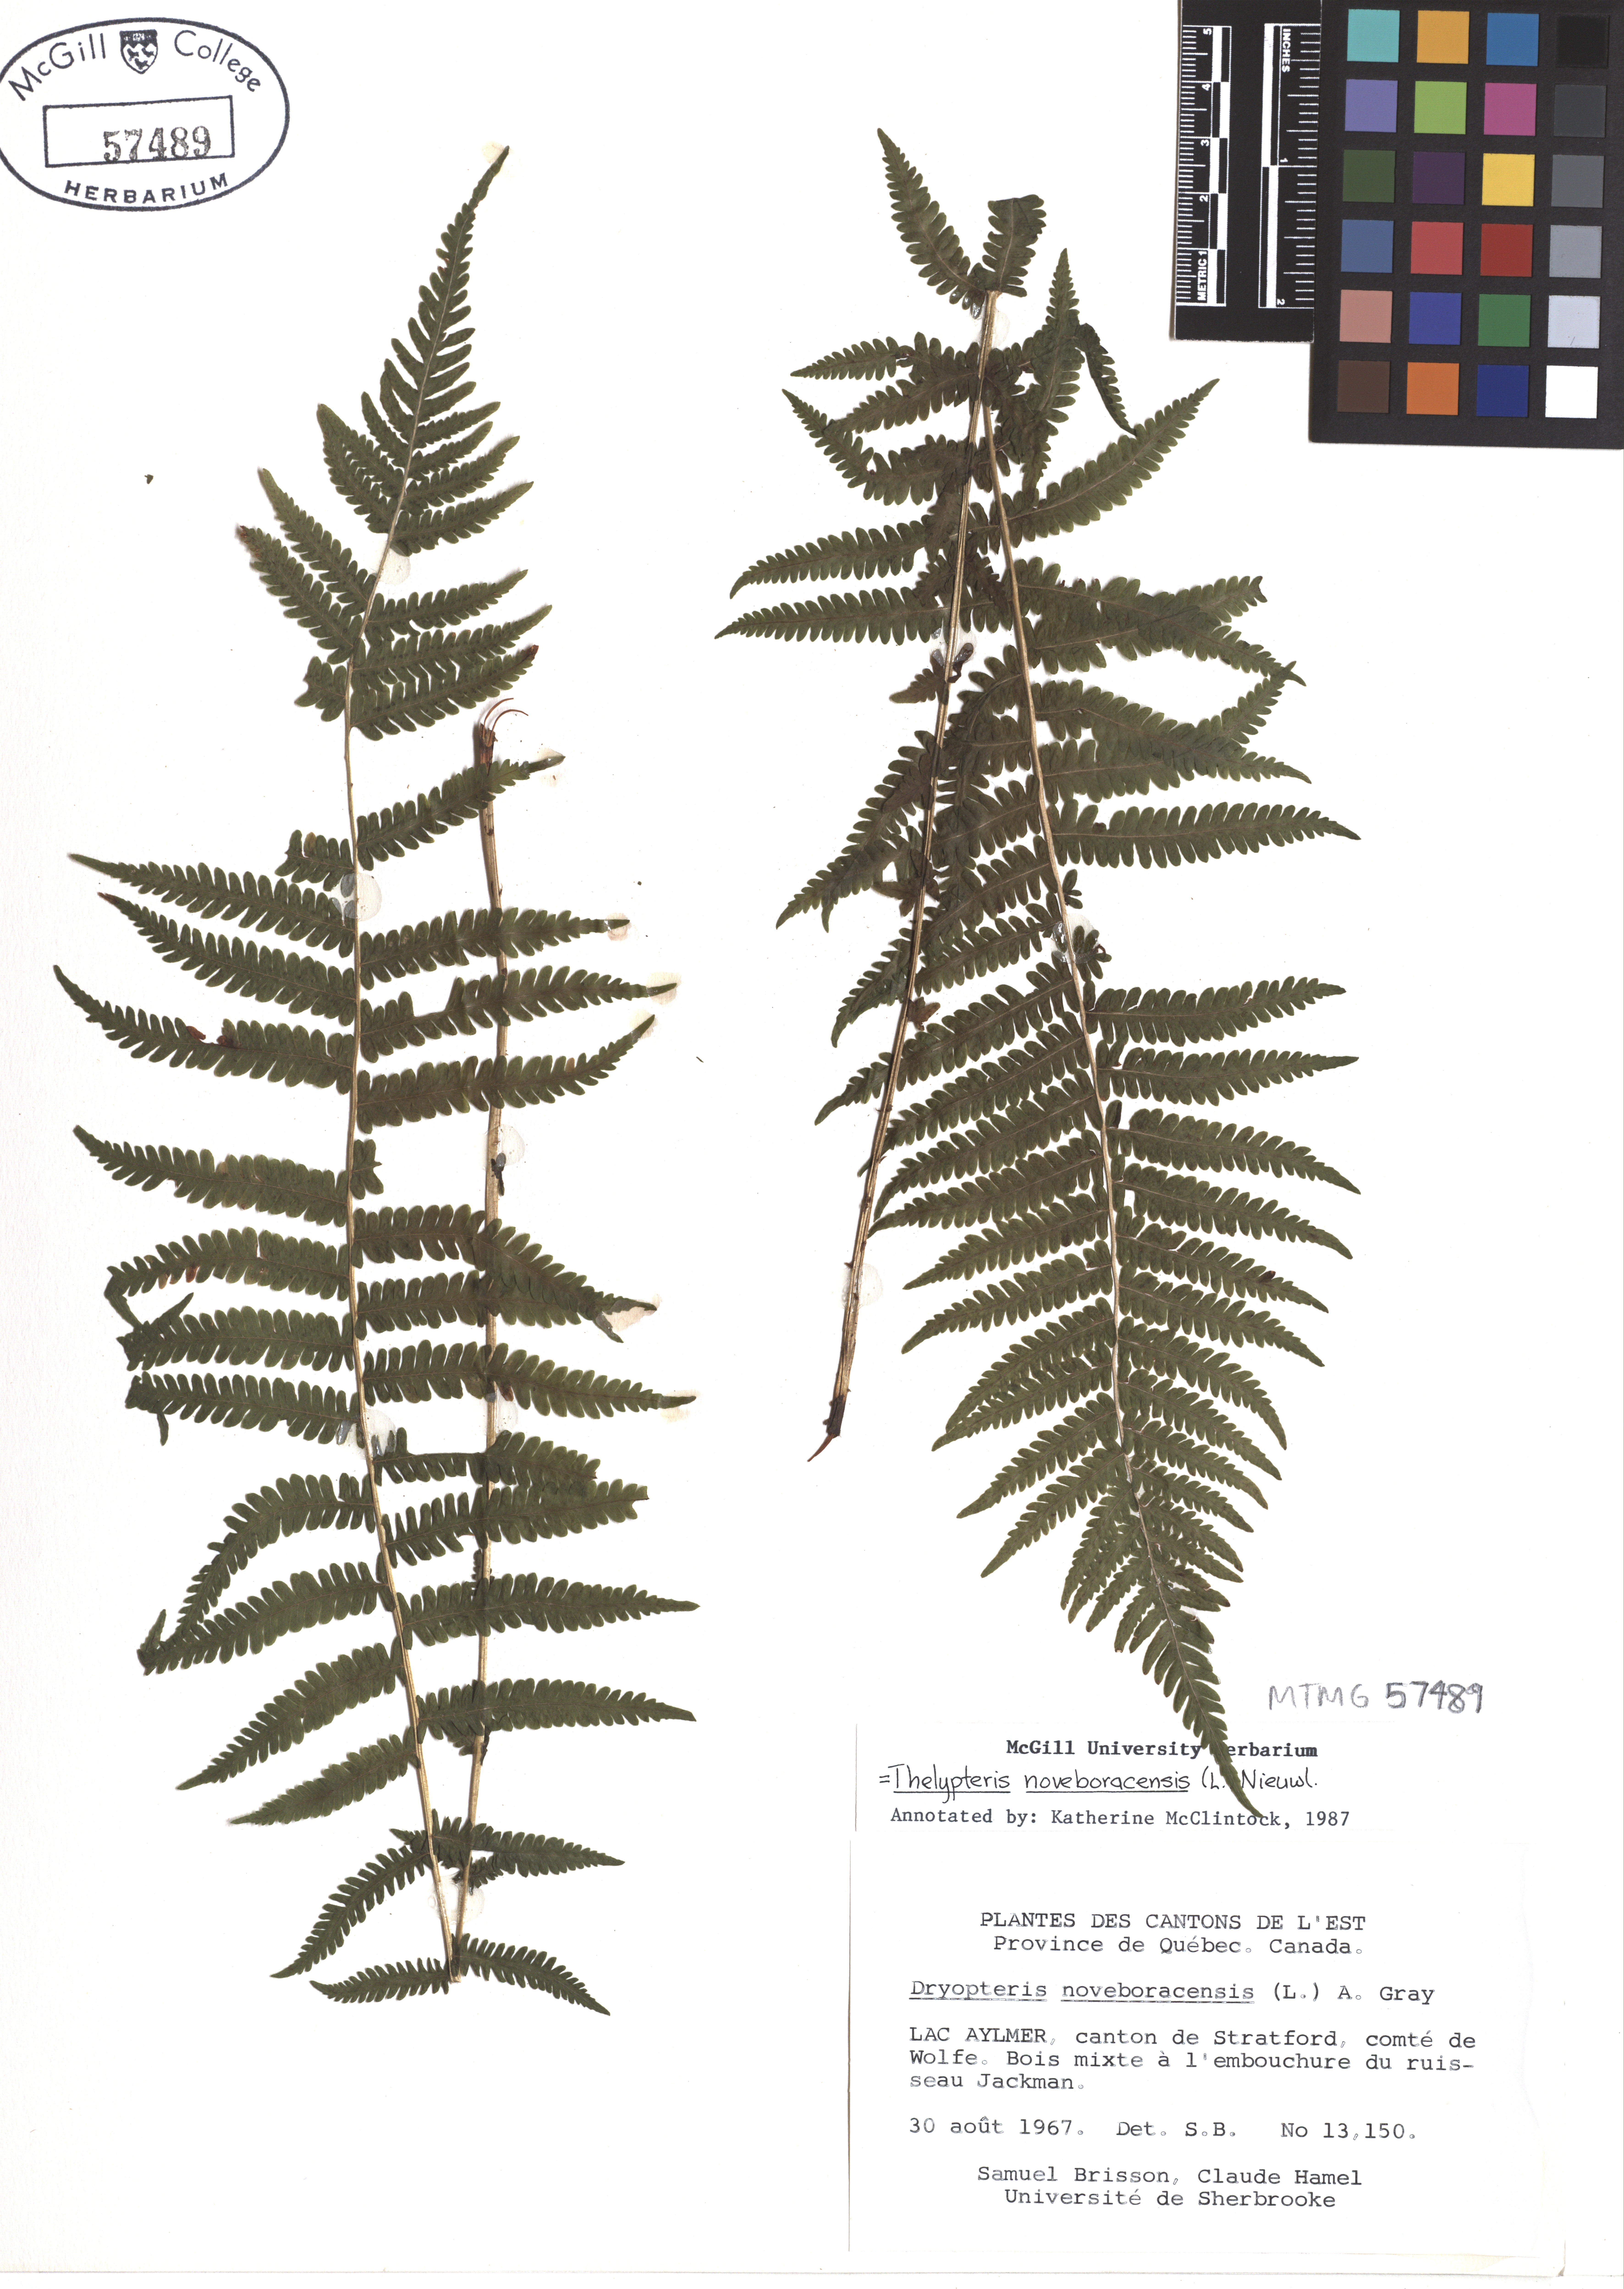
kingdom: Plantae
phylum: Tracheophyta
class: Polypodiopsida
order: Polypodiales
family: Thelypteridaceae
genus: Amauropelta
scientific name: Amauropelta noveboracensis
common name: New york fern
